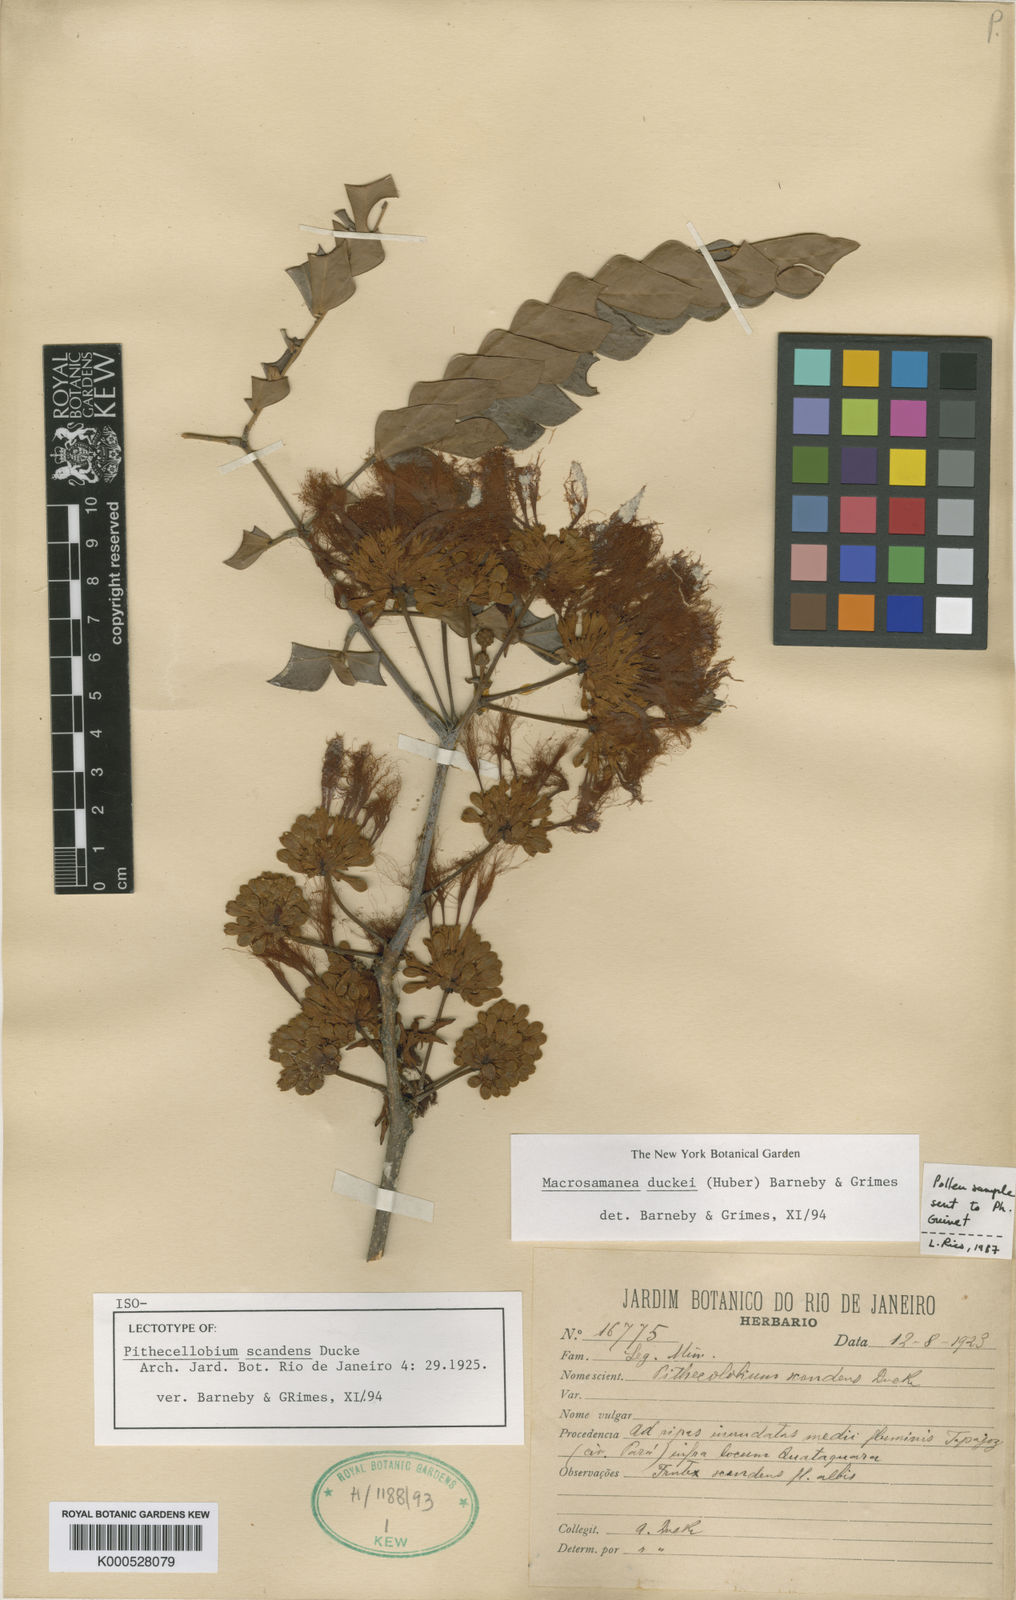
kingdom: Plantae
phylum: Tracheophyta
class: Magnoliopsida
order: Fabales
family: Fabaceae
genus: Macrosamanea
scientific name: Macrosamanea
